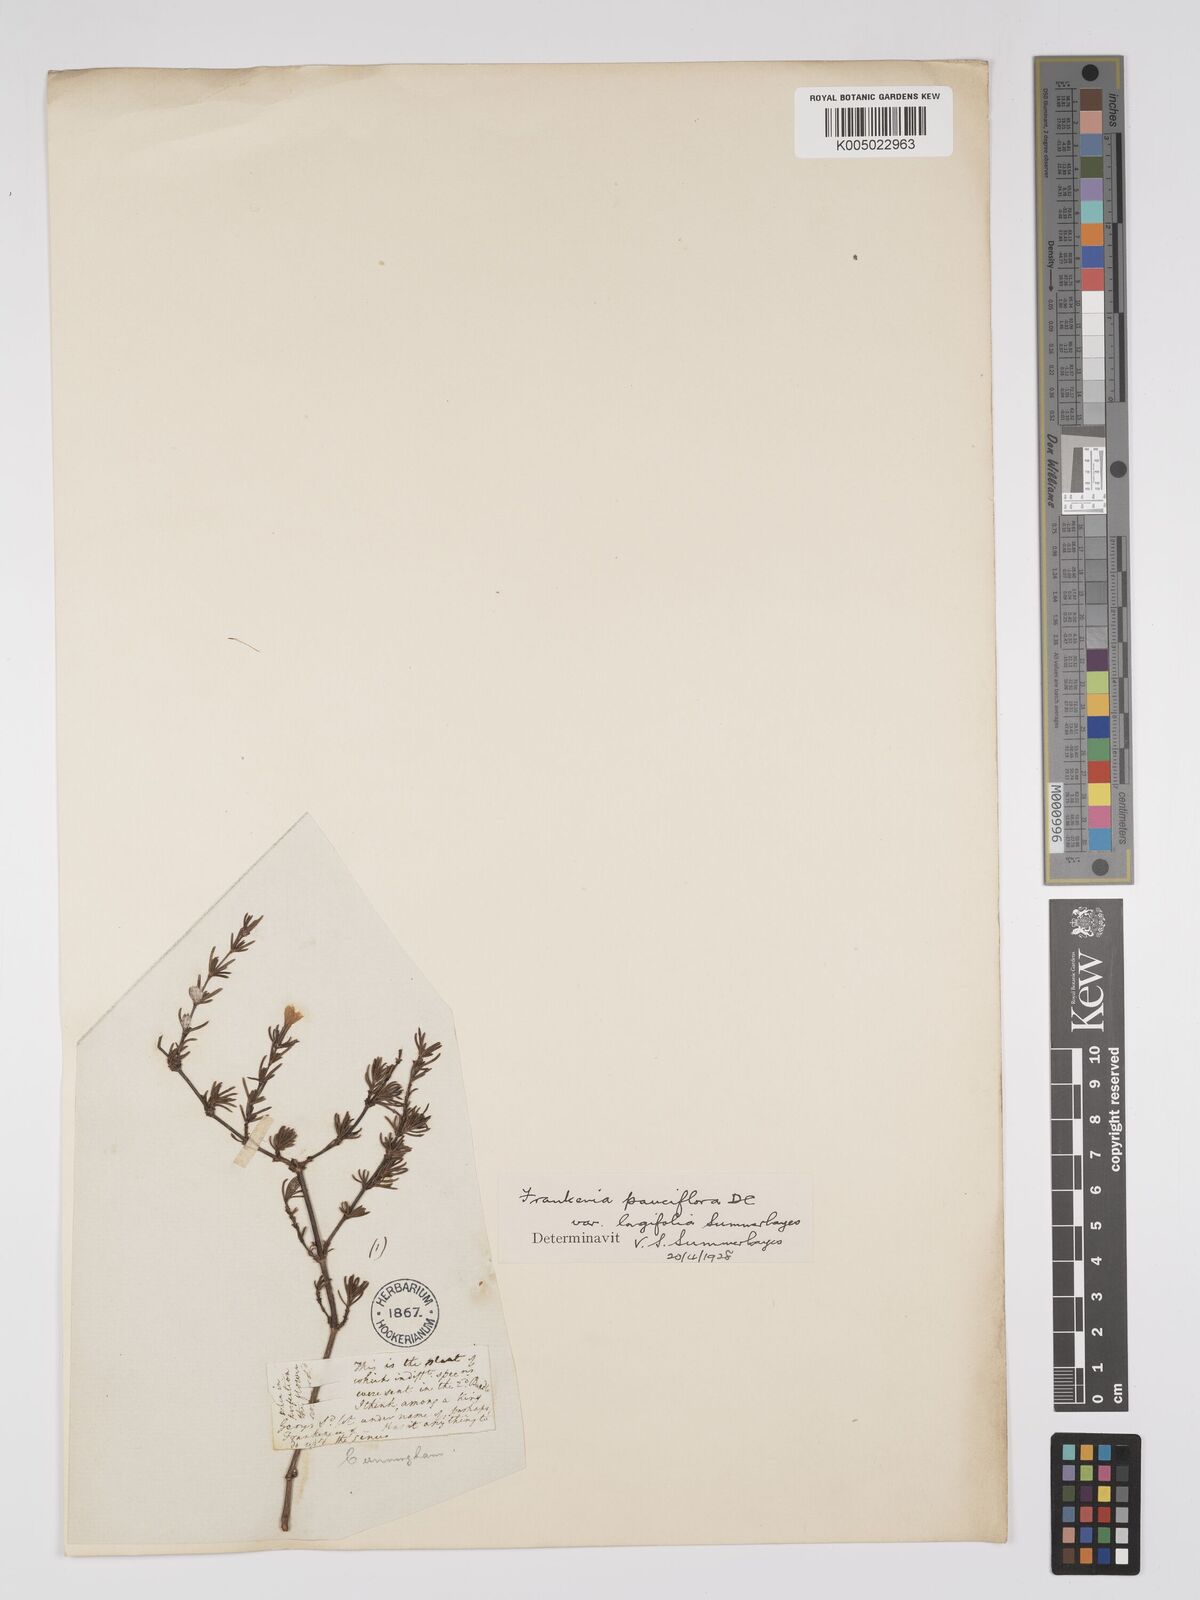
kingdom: Plantae
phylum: Tracheophyta
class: Magnoliopsida
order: Caryophyllales
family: Frankeniaceae
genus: Frankenia
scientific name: Frankenia pauciflora
